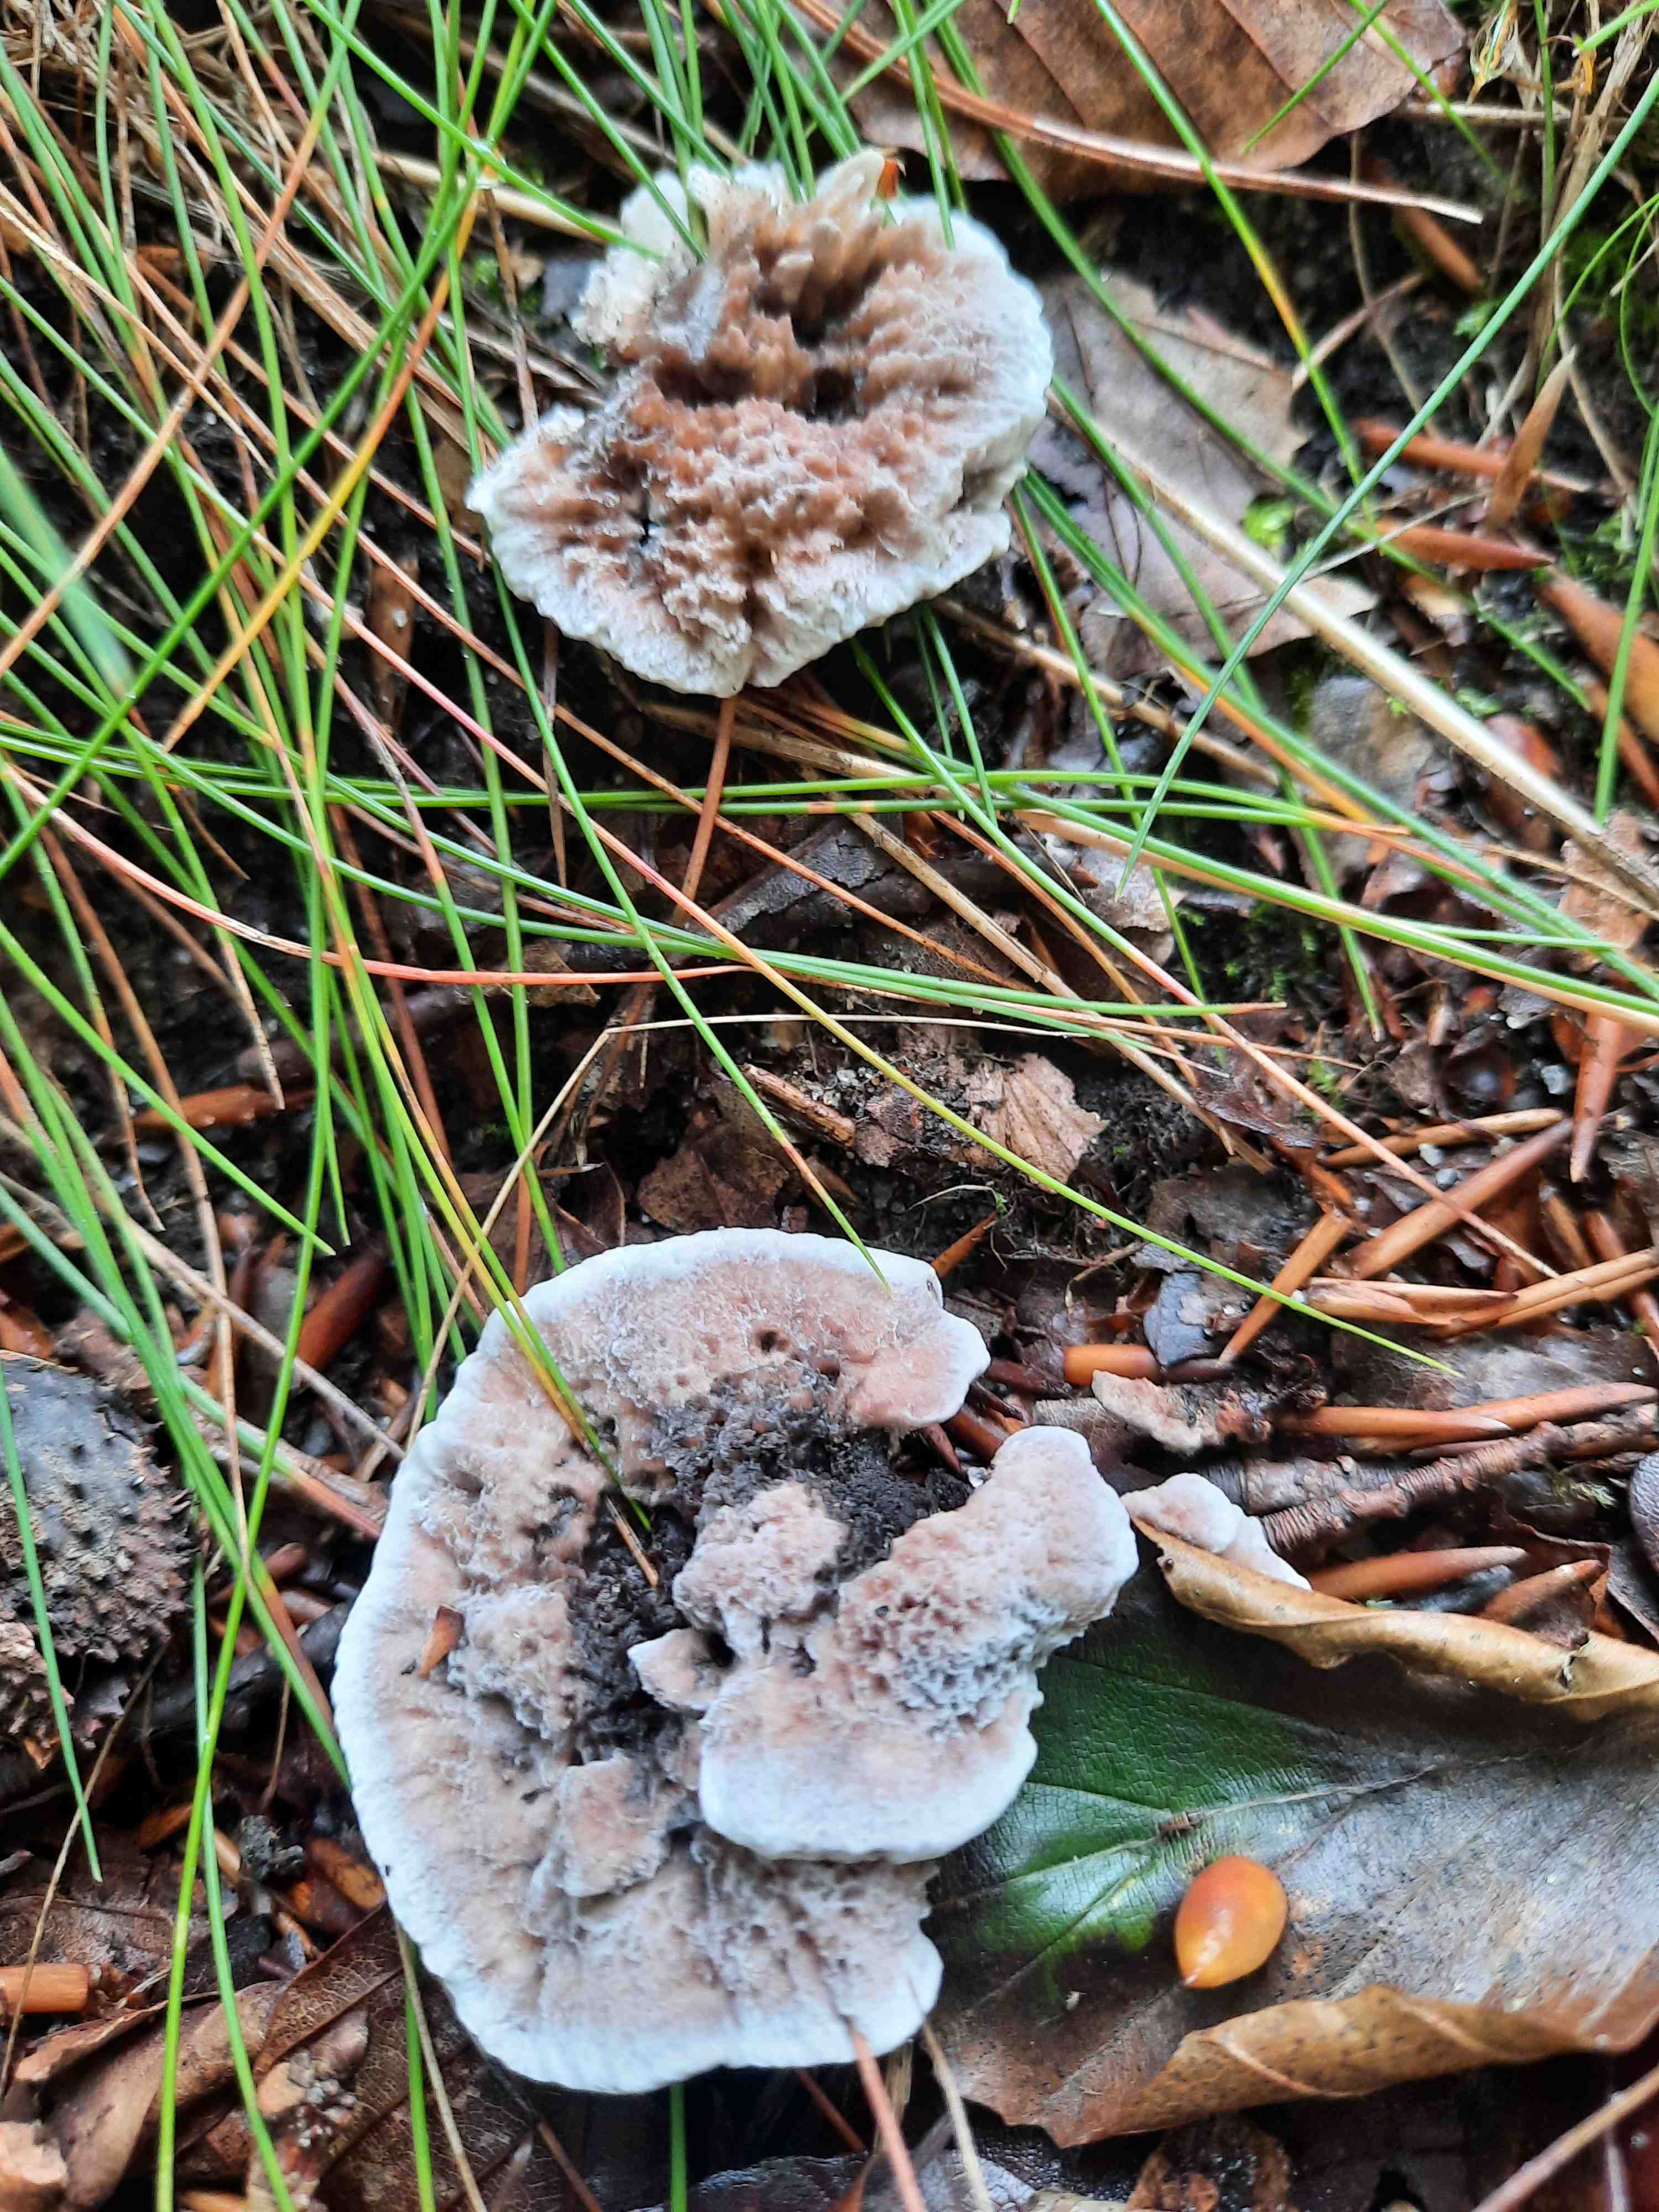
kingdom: Fungi
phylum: Basidiomycota
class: Agaricomycetes
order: Thelephorales
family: Thelephoraceae
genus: Phellodon
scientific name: Phellodon confluens
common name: pjaltet duftpigsvamp
